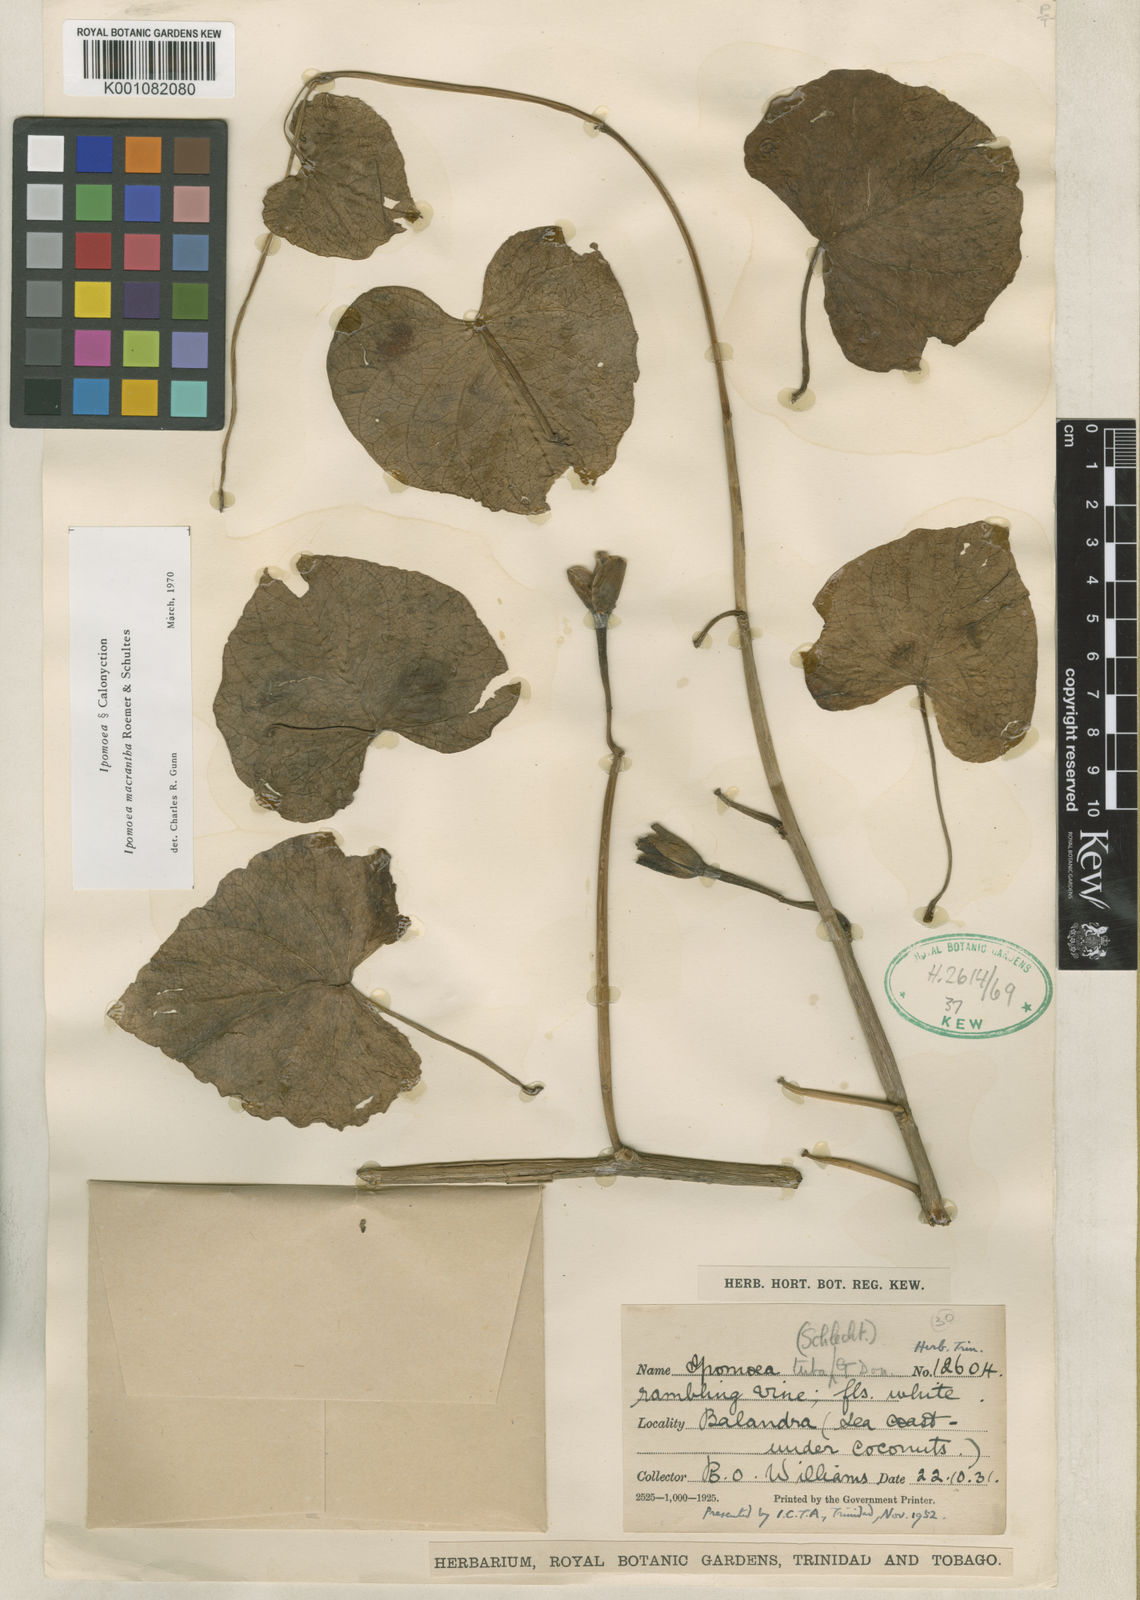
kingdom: Plantae
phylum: Tracheophyta
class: Magnoliopsida
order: Solanales
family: Convolvulaceae
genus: Ipomoea
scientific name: Ipomoea violacea
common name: Beach moonflower
